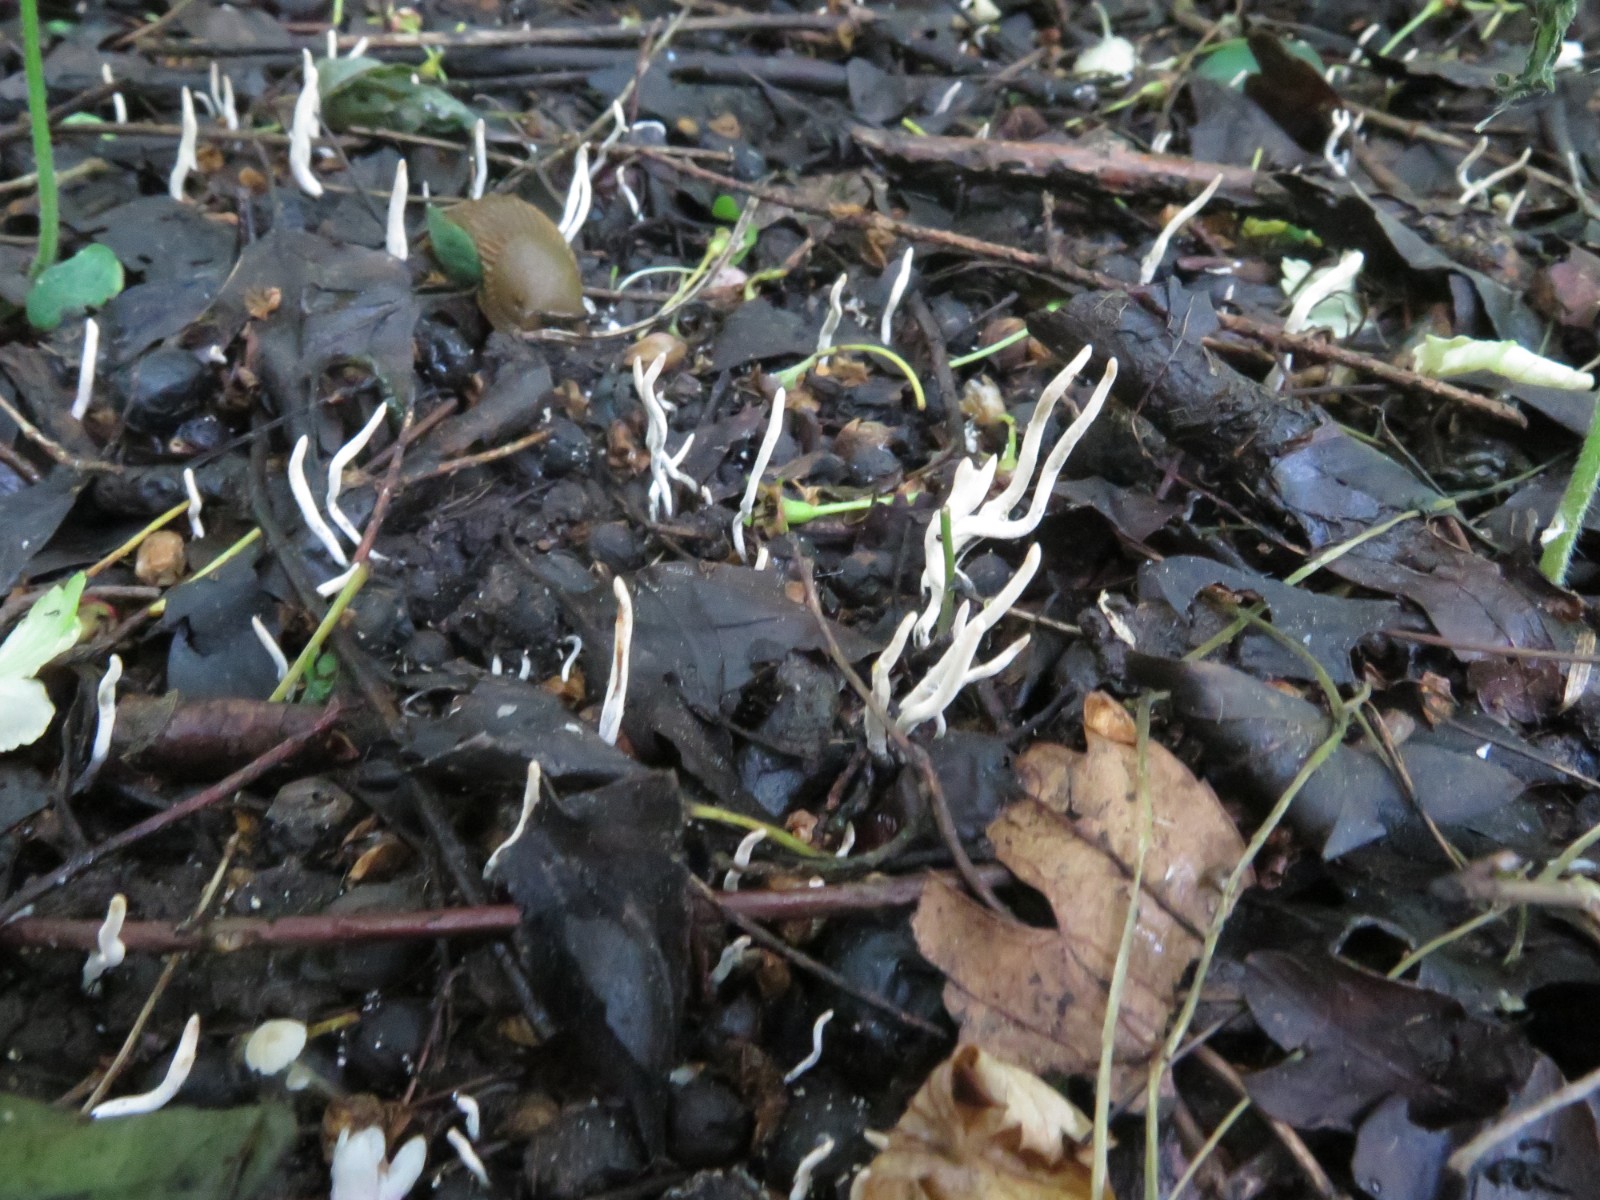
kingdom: Fungi
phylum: Ascomycota
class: Sordariomycetes
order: Xylariales
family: Xylariaceae
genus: Xylaria
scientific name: Xylaria oxyacanthae
